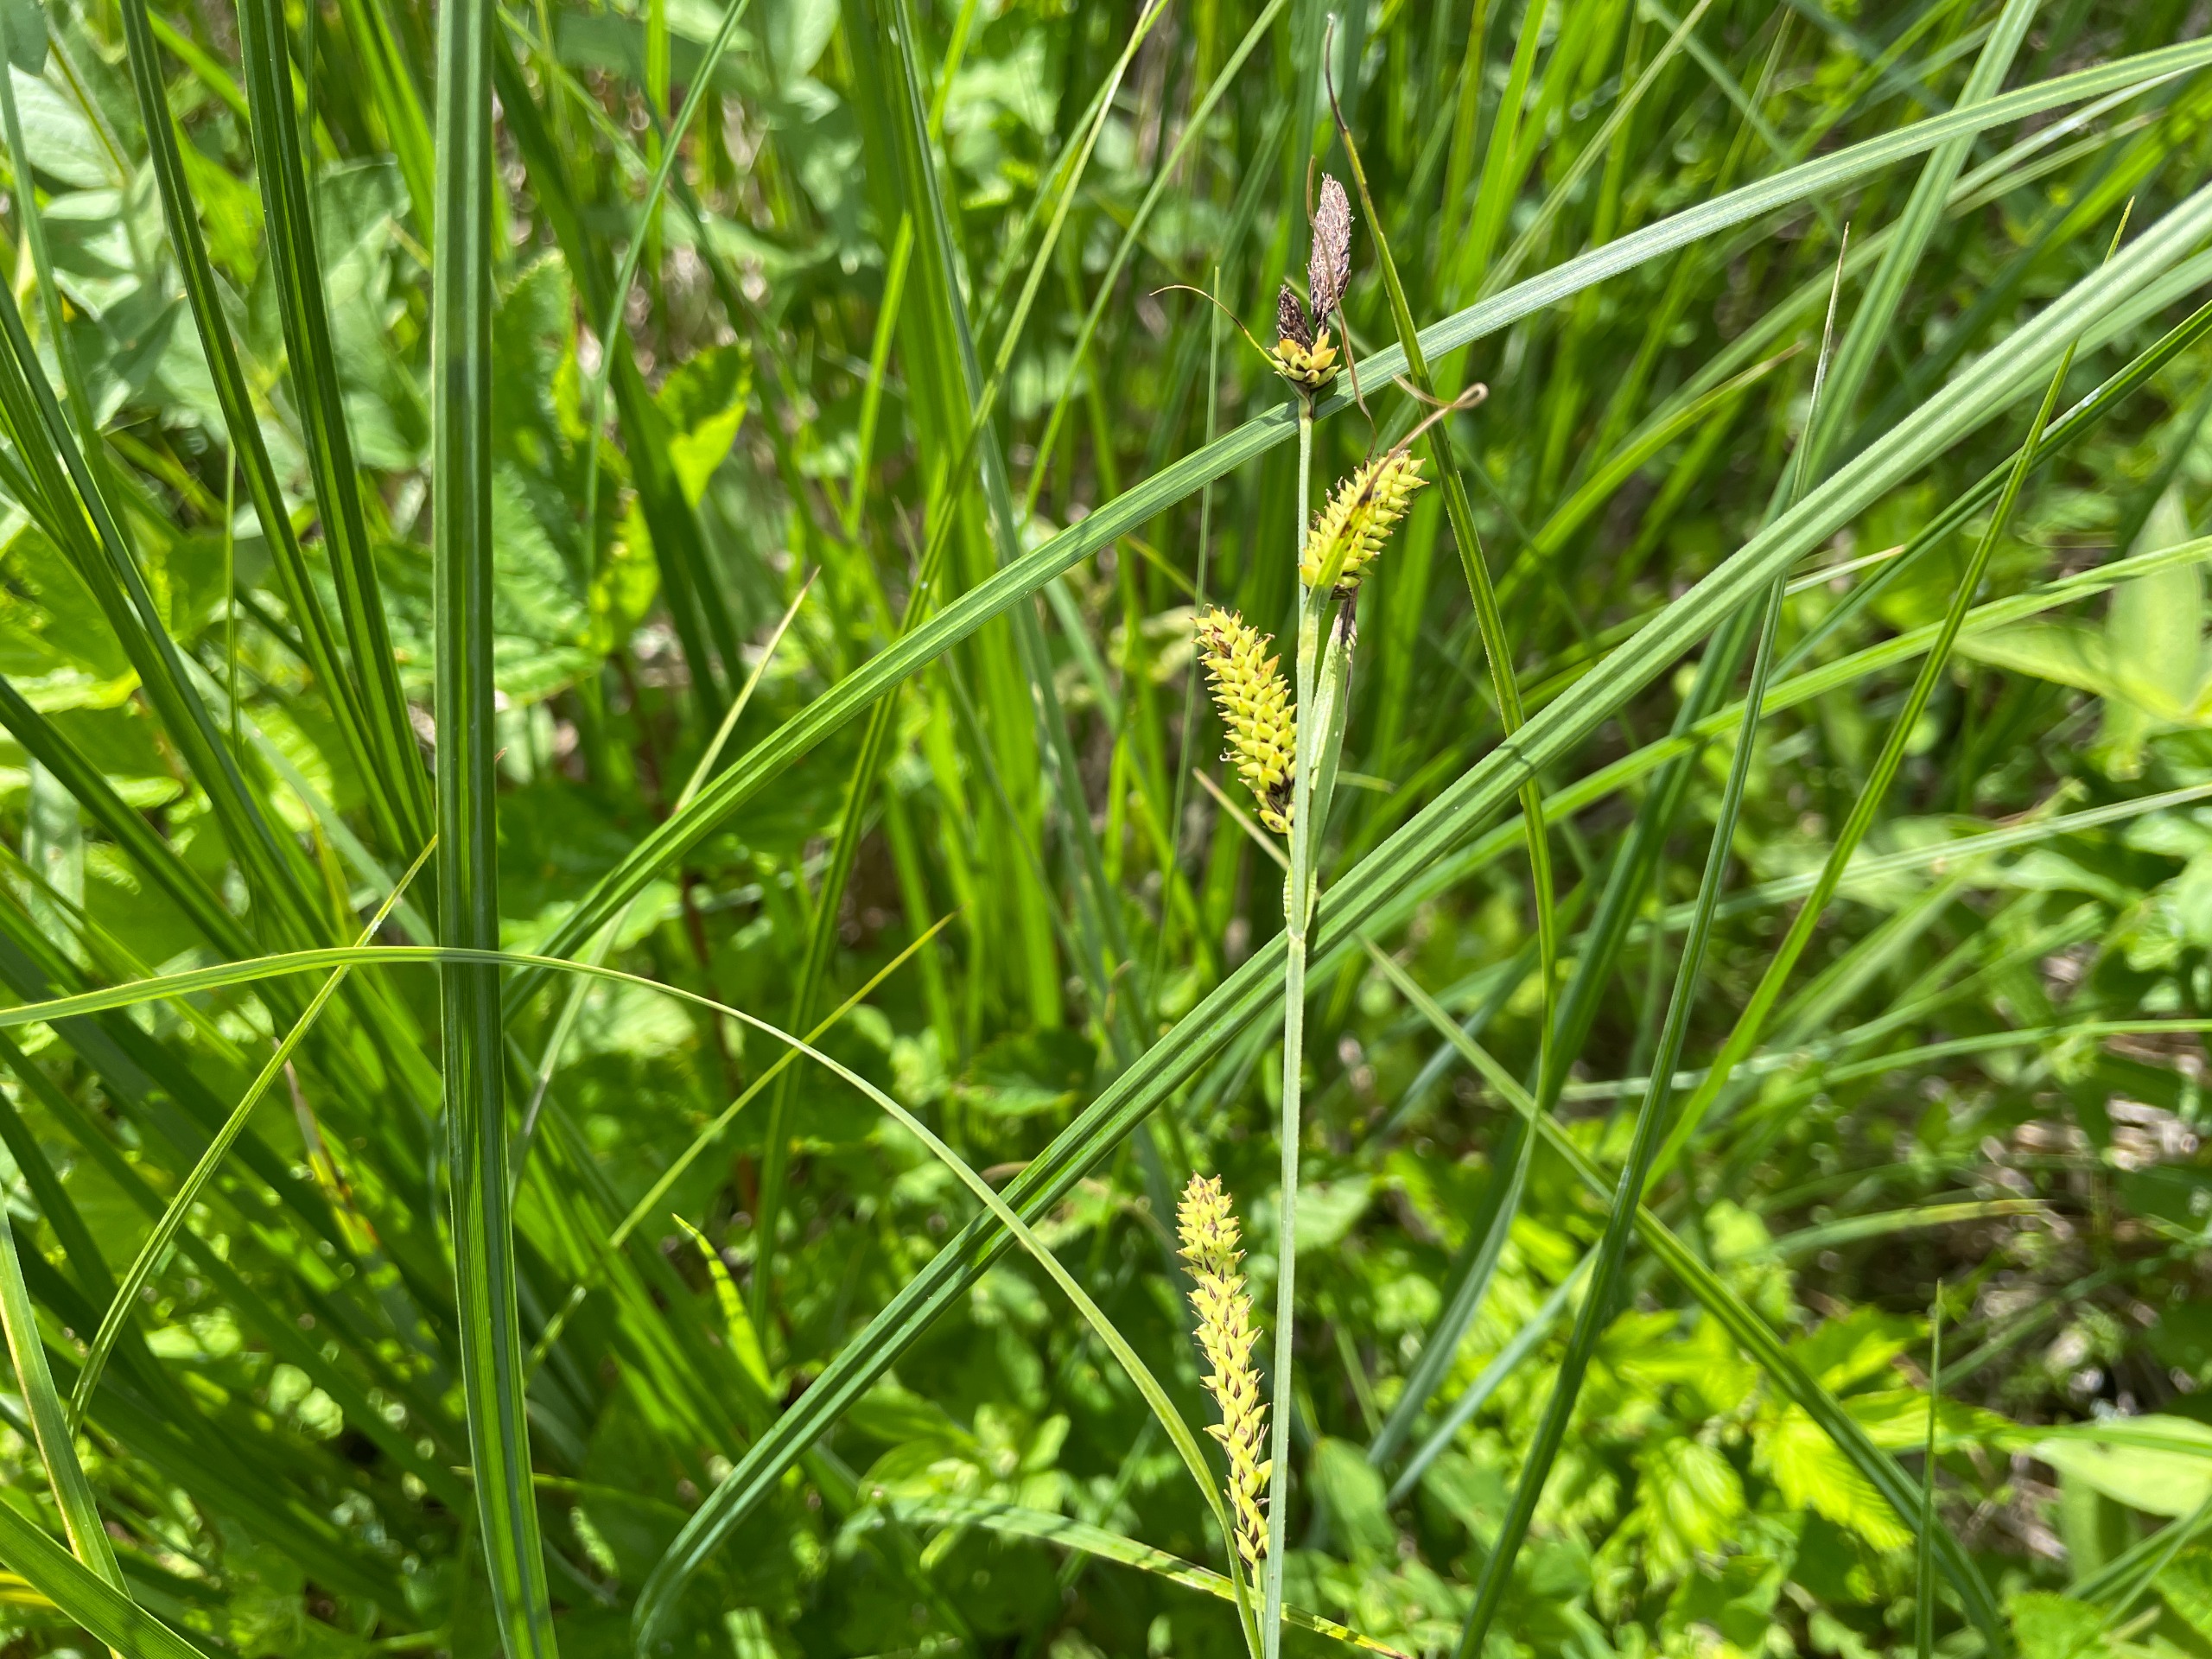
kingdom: Plantae
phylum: Tracheophyta
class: Liliopsida
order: Poales
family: Cyperaceae
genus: Carex
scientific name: Carex acutiformis
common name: Kær-star
